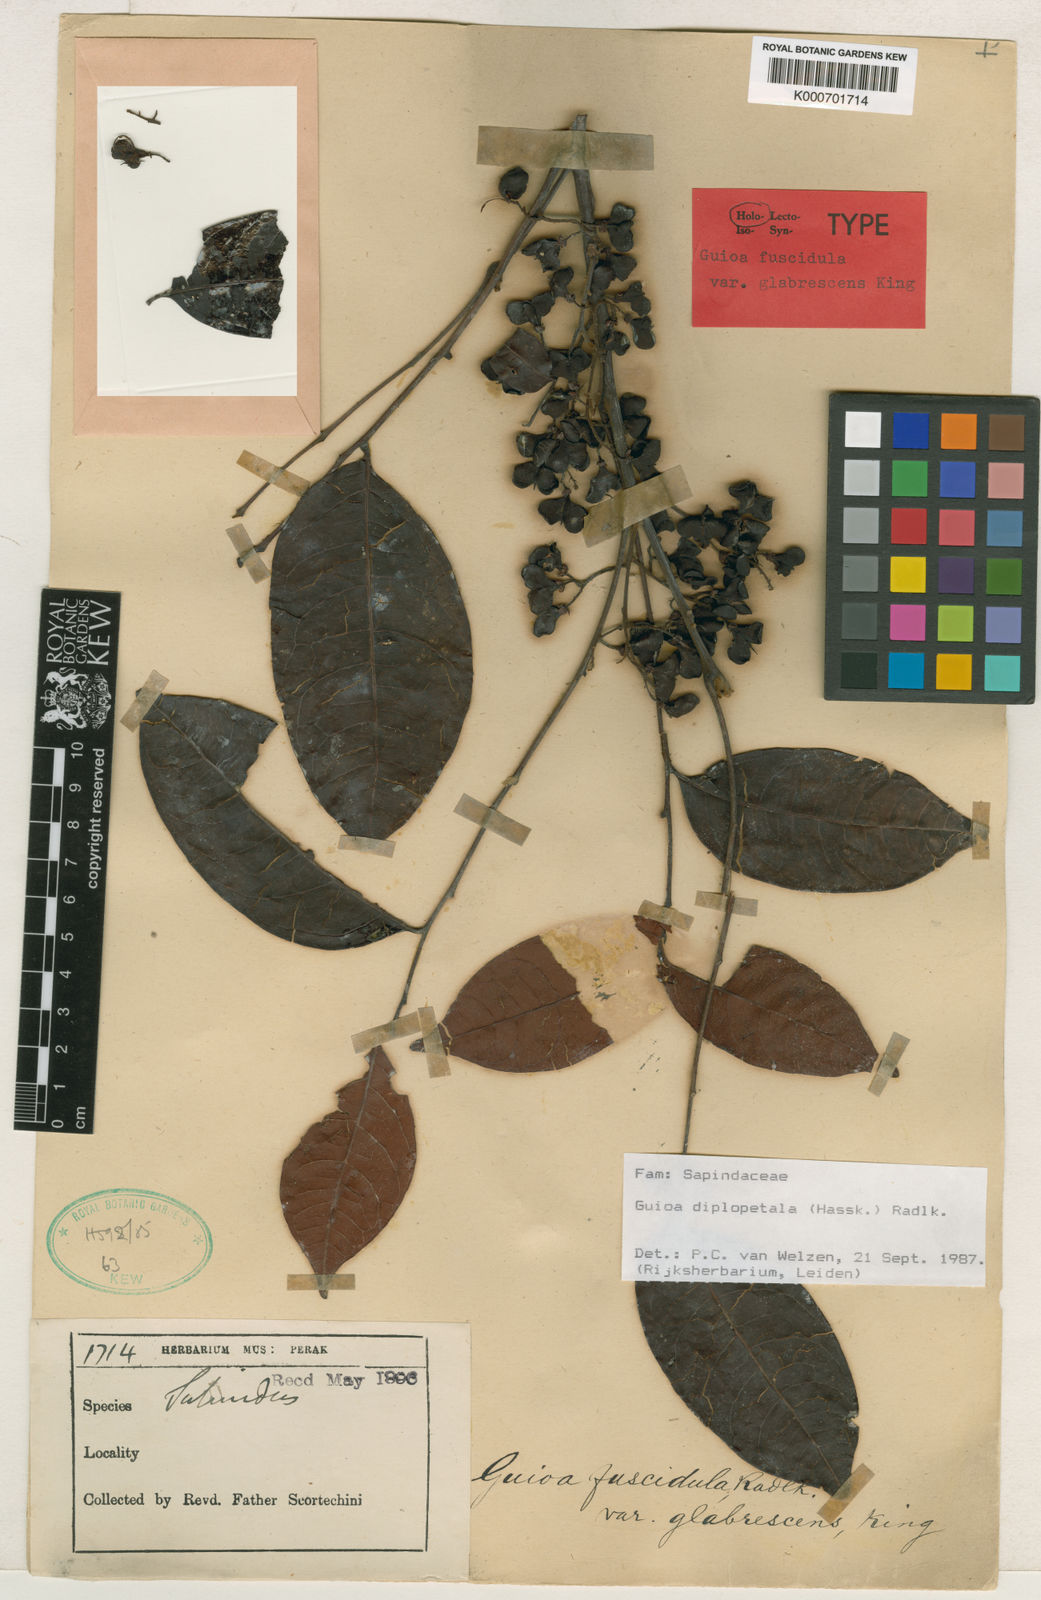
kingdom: Plantae
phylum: Tracheophyta
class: Magnoliopsida
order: Sapindales
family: Sapindaceae
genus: Guioa
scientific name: Guioa diplopetala
